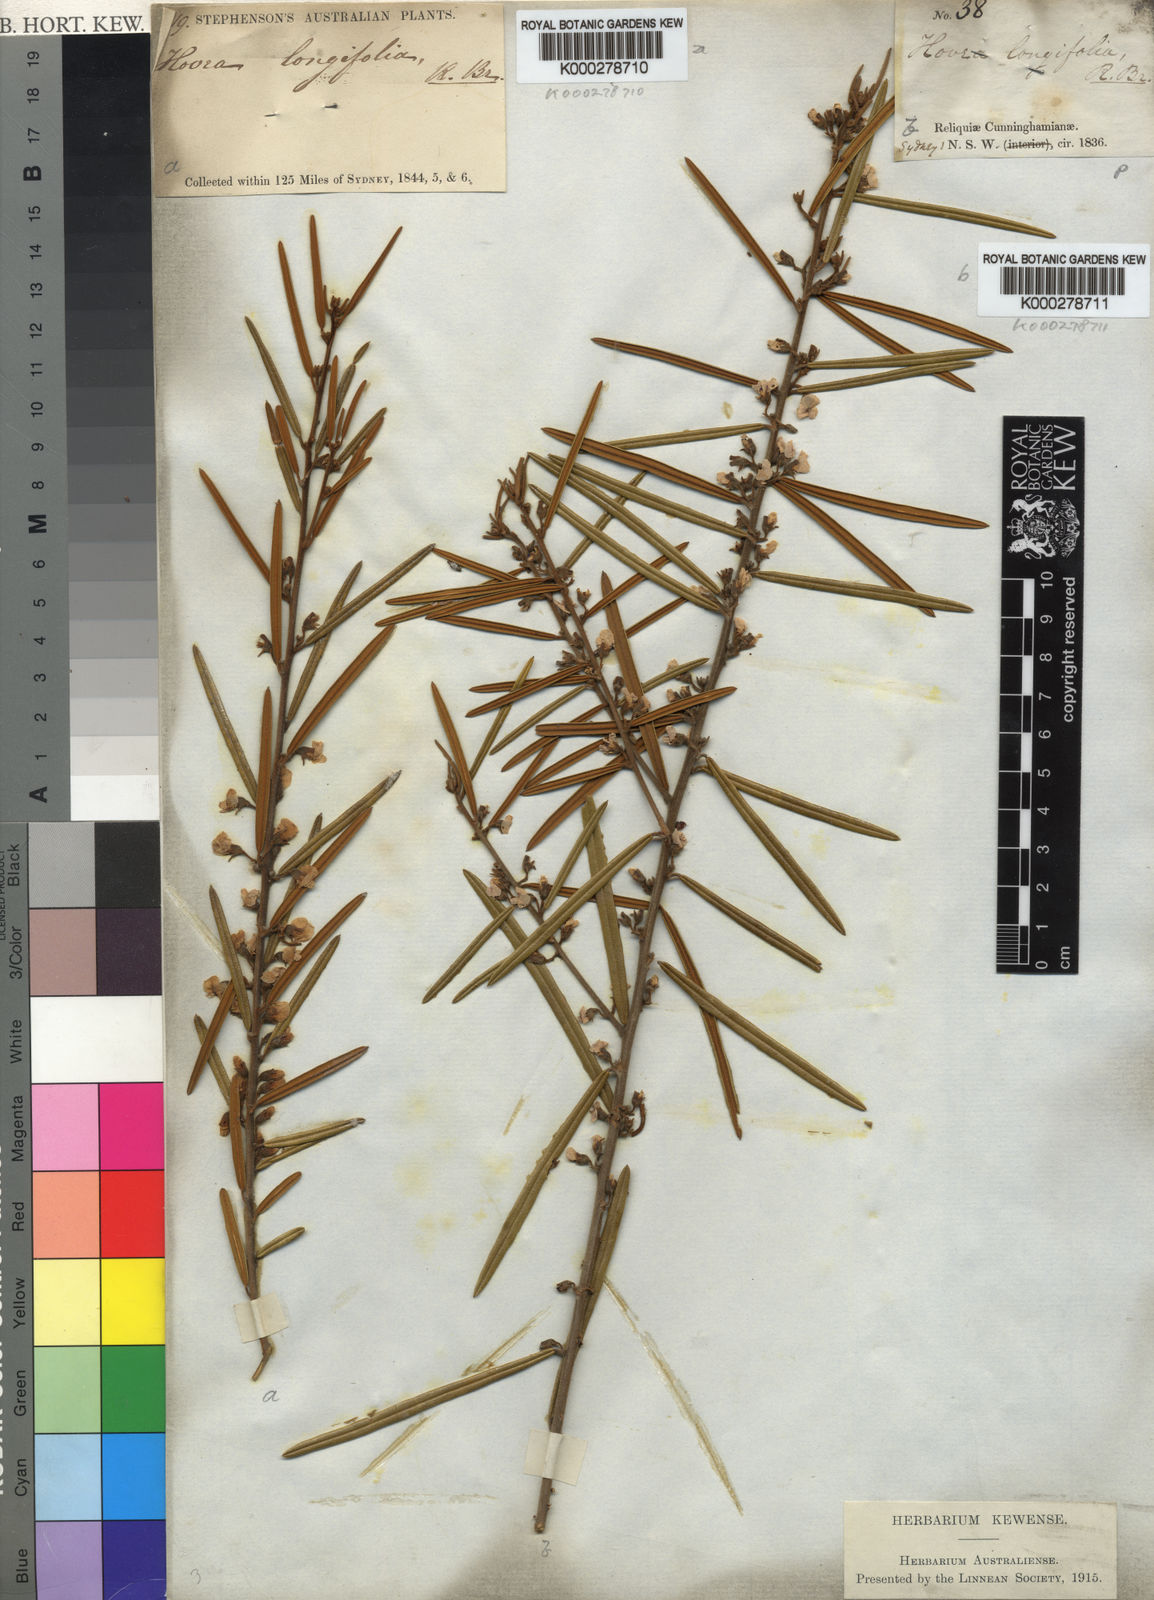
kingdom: Plantae
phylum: Tracheophyta
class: Magnoliopsida
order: Fabales
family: Fabaceae
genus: Hovea
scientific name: Hovea longifolia
